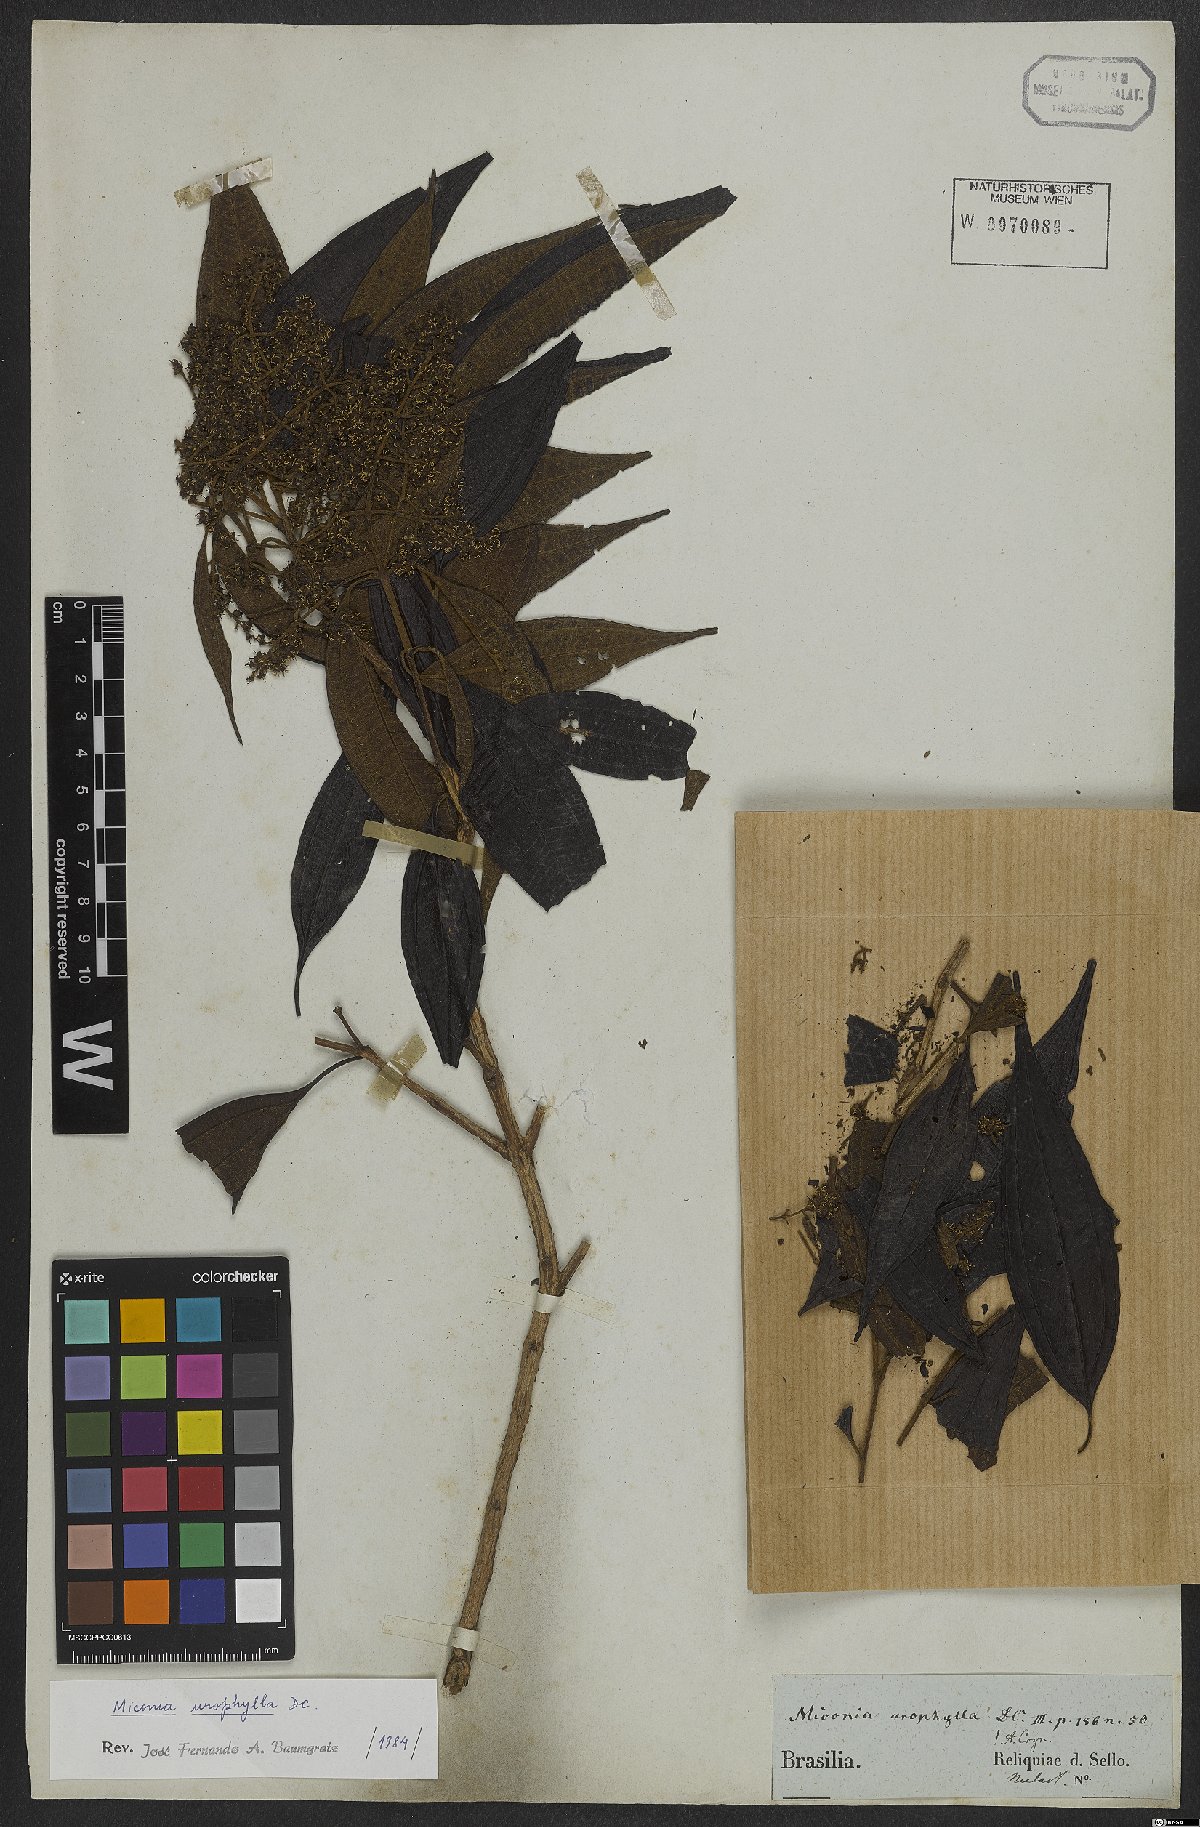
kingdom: Plantae
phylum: Tracheophyta
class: Magnoliopsida
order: Myrtales
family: Melastomataceae
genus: Miconia
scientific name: Miconia urophylla
